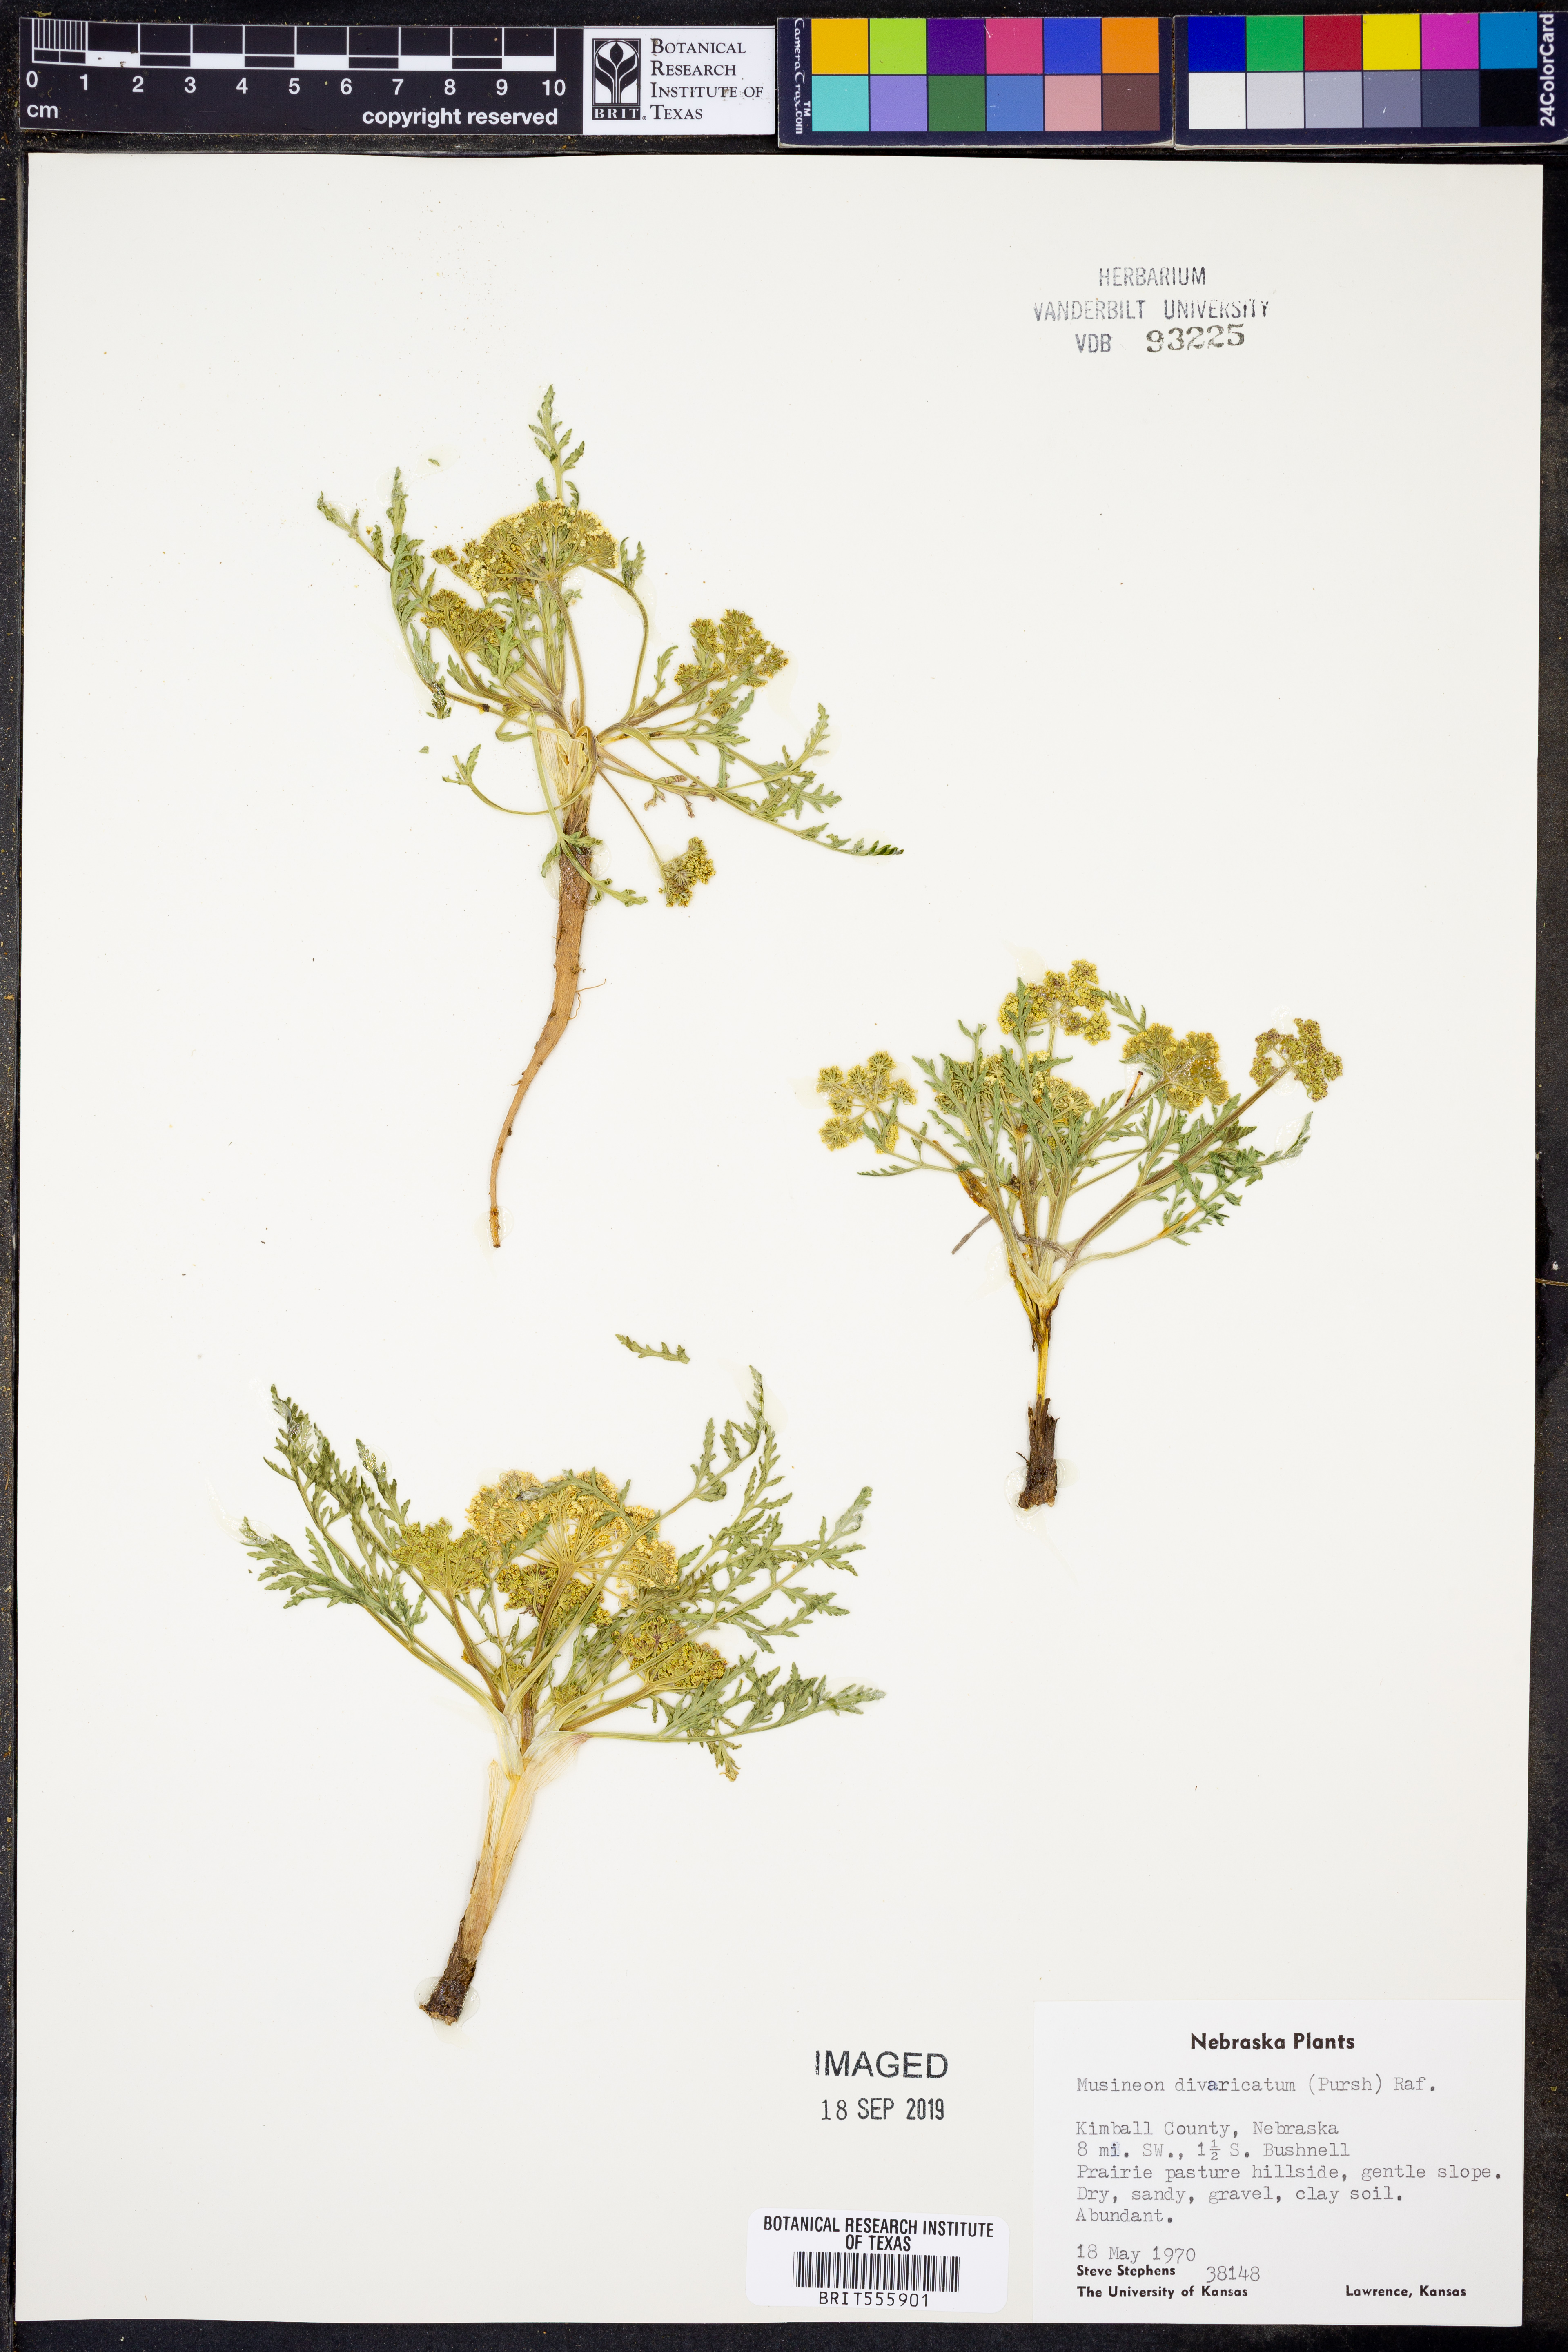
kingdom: Plantae
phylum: Tracheophyta
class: Magnoliopsida
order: Apiales
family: Apiaceae
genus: Musineon
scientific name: Musineon divaricatum
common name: Plains musineon
